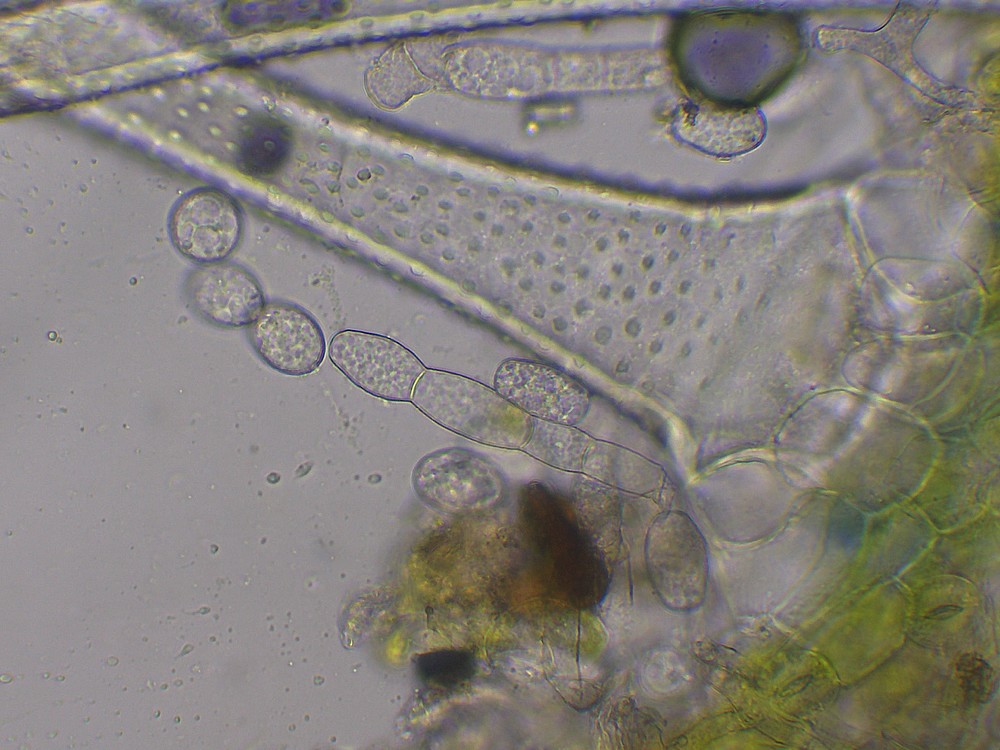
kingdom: Fungi
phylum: Ascomycota
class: Leotiomycetes
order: Helotiales
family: Erysiphaceae
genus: Golovinomyces
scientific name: Golovinomyces asperifolii
